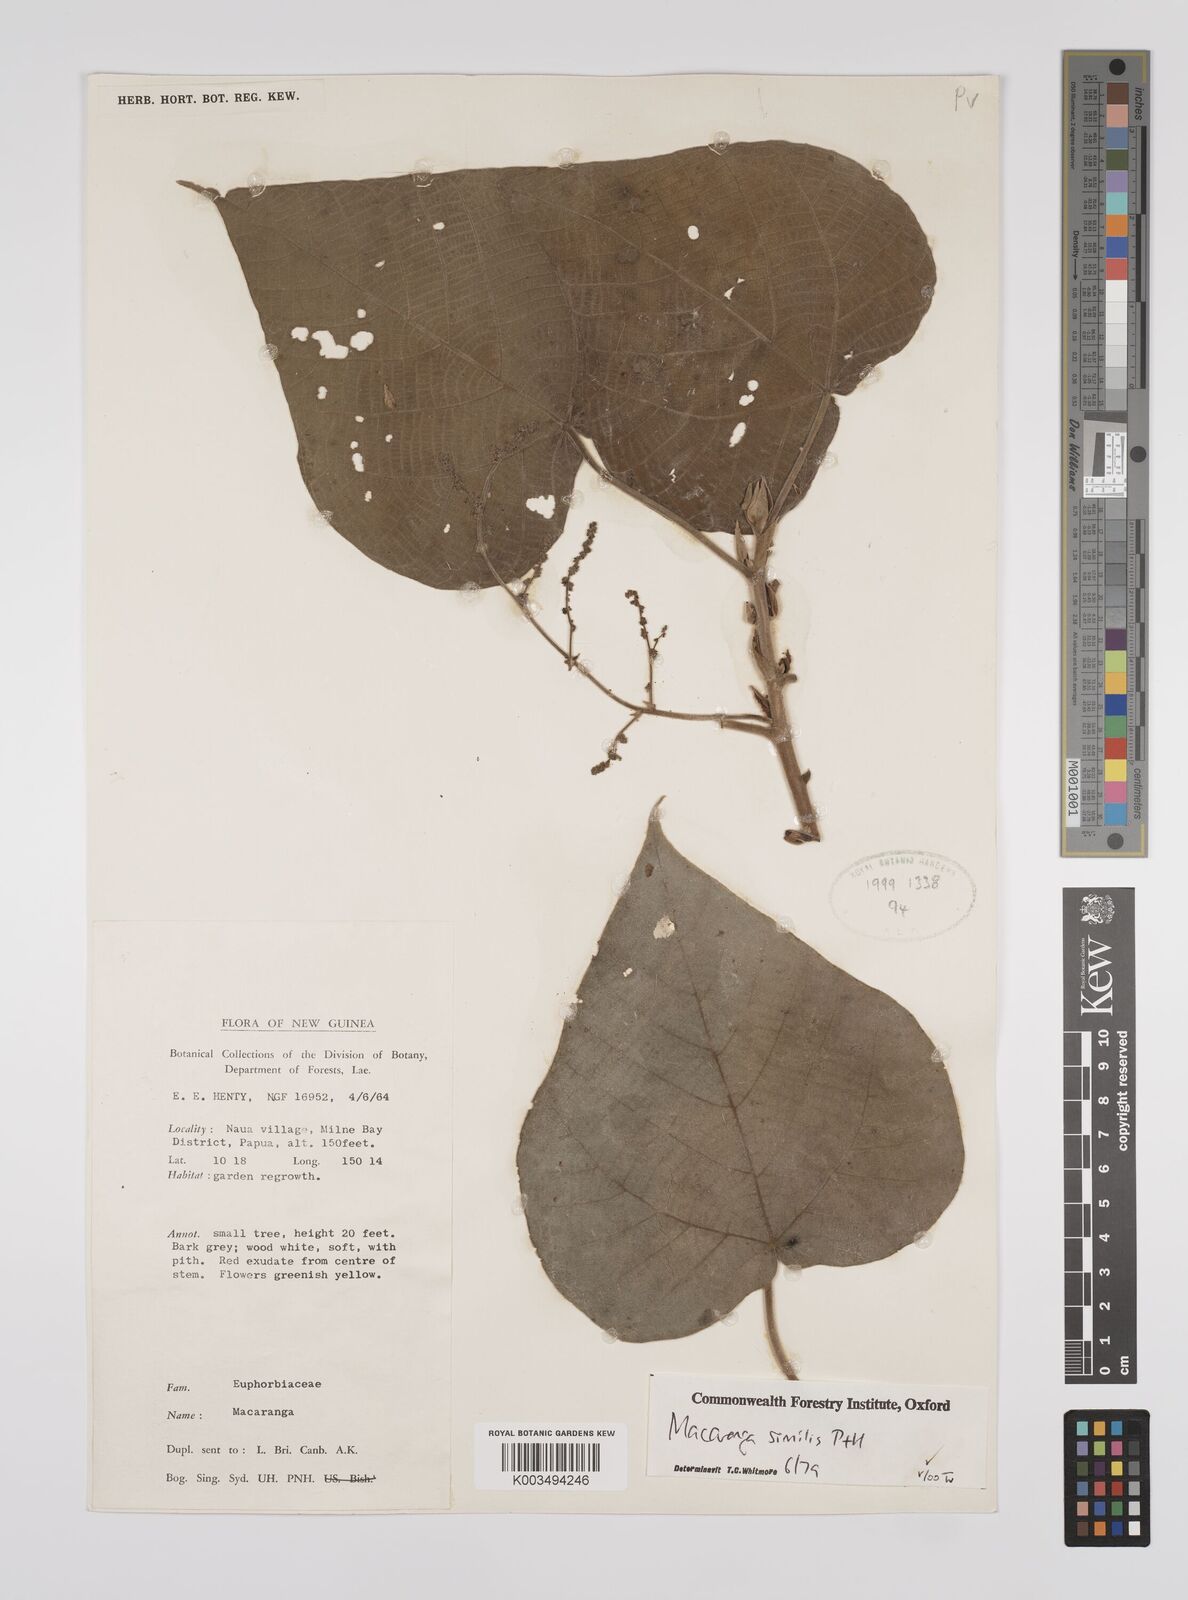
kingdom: Plantae
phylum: Tracheophyta
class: Magnoliopsida
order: Malpighiales
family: Euphorbiaceae
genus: Macaranga
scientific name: Macaranga similis
